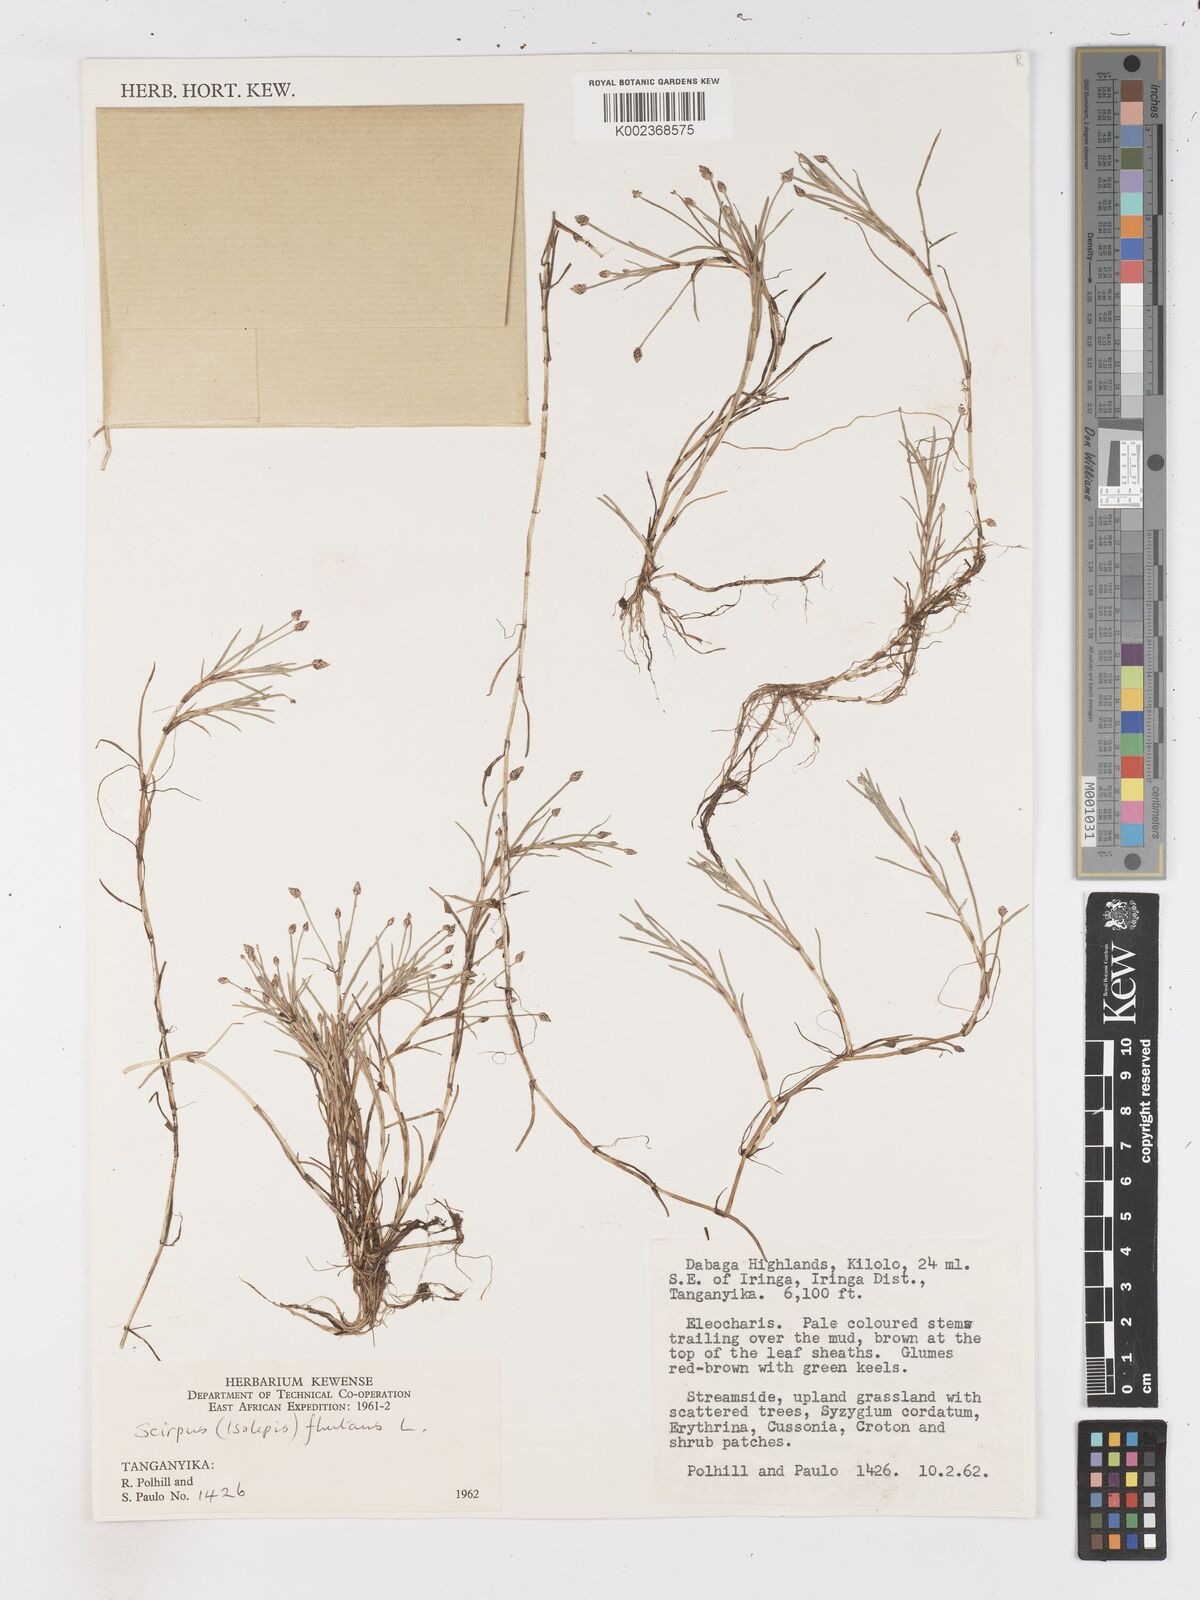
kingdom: Plantae
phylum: Tracheophyta
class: Liliopsida
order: Poales
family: Cyperaceae
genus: Isolepis
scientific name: Isolepis fluitans
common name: Floating club-rush
